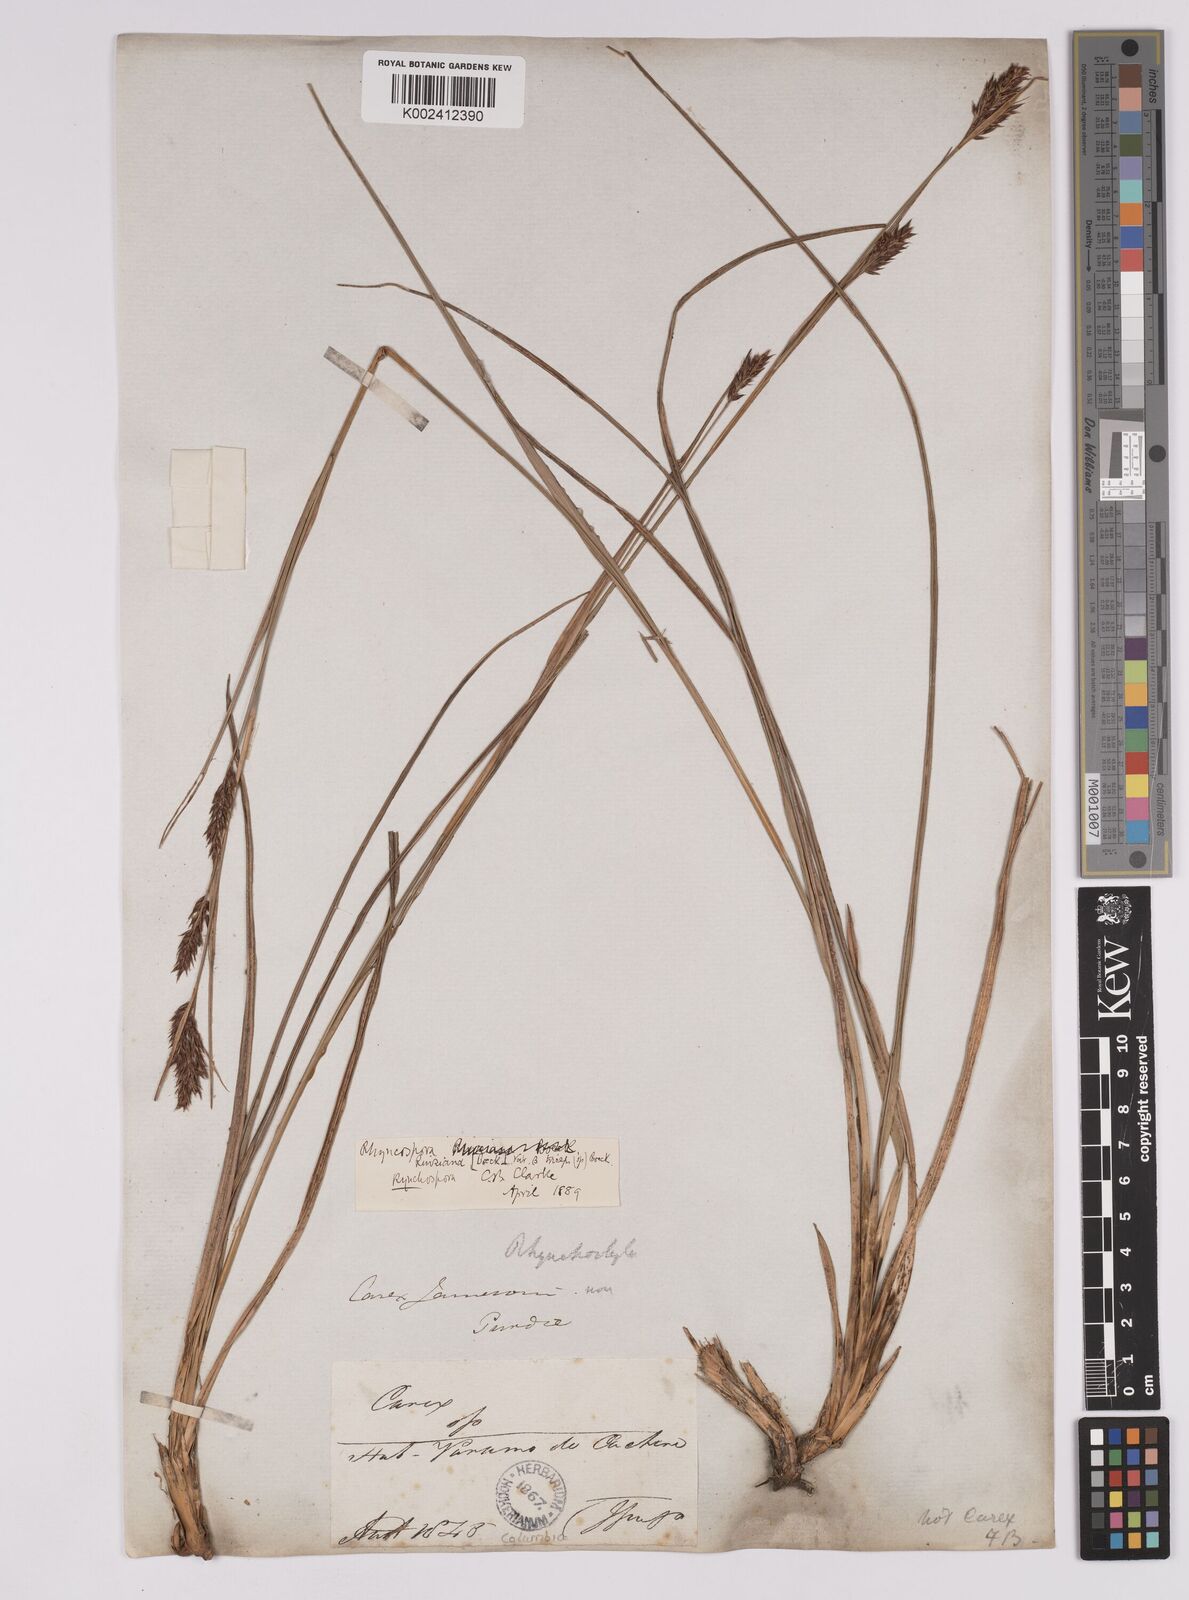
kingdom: Plantae
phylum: Tracheophyta
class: Liliopsida
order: Poales
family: Cyperaceae
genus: Rhynchospora
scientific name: Rhynchospora ruiziana
